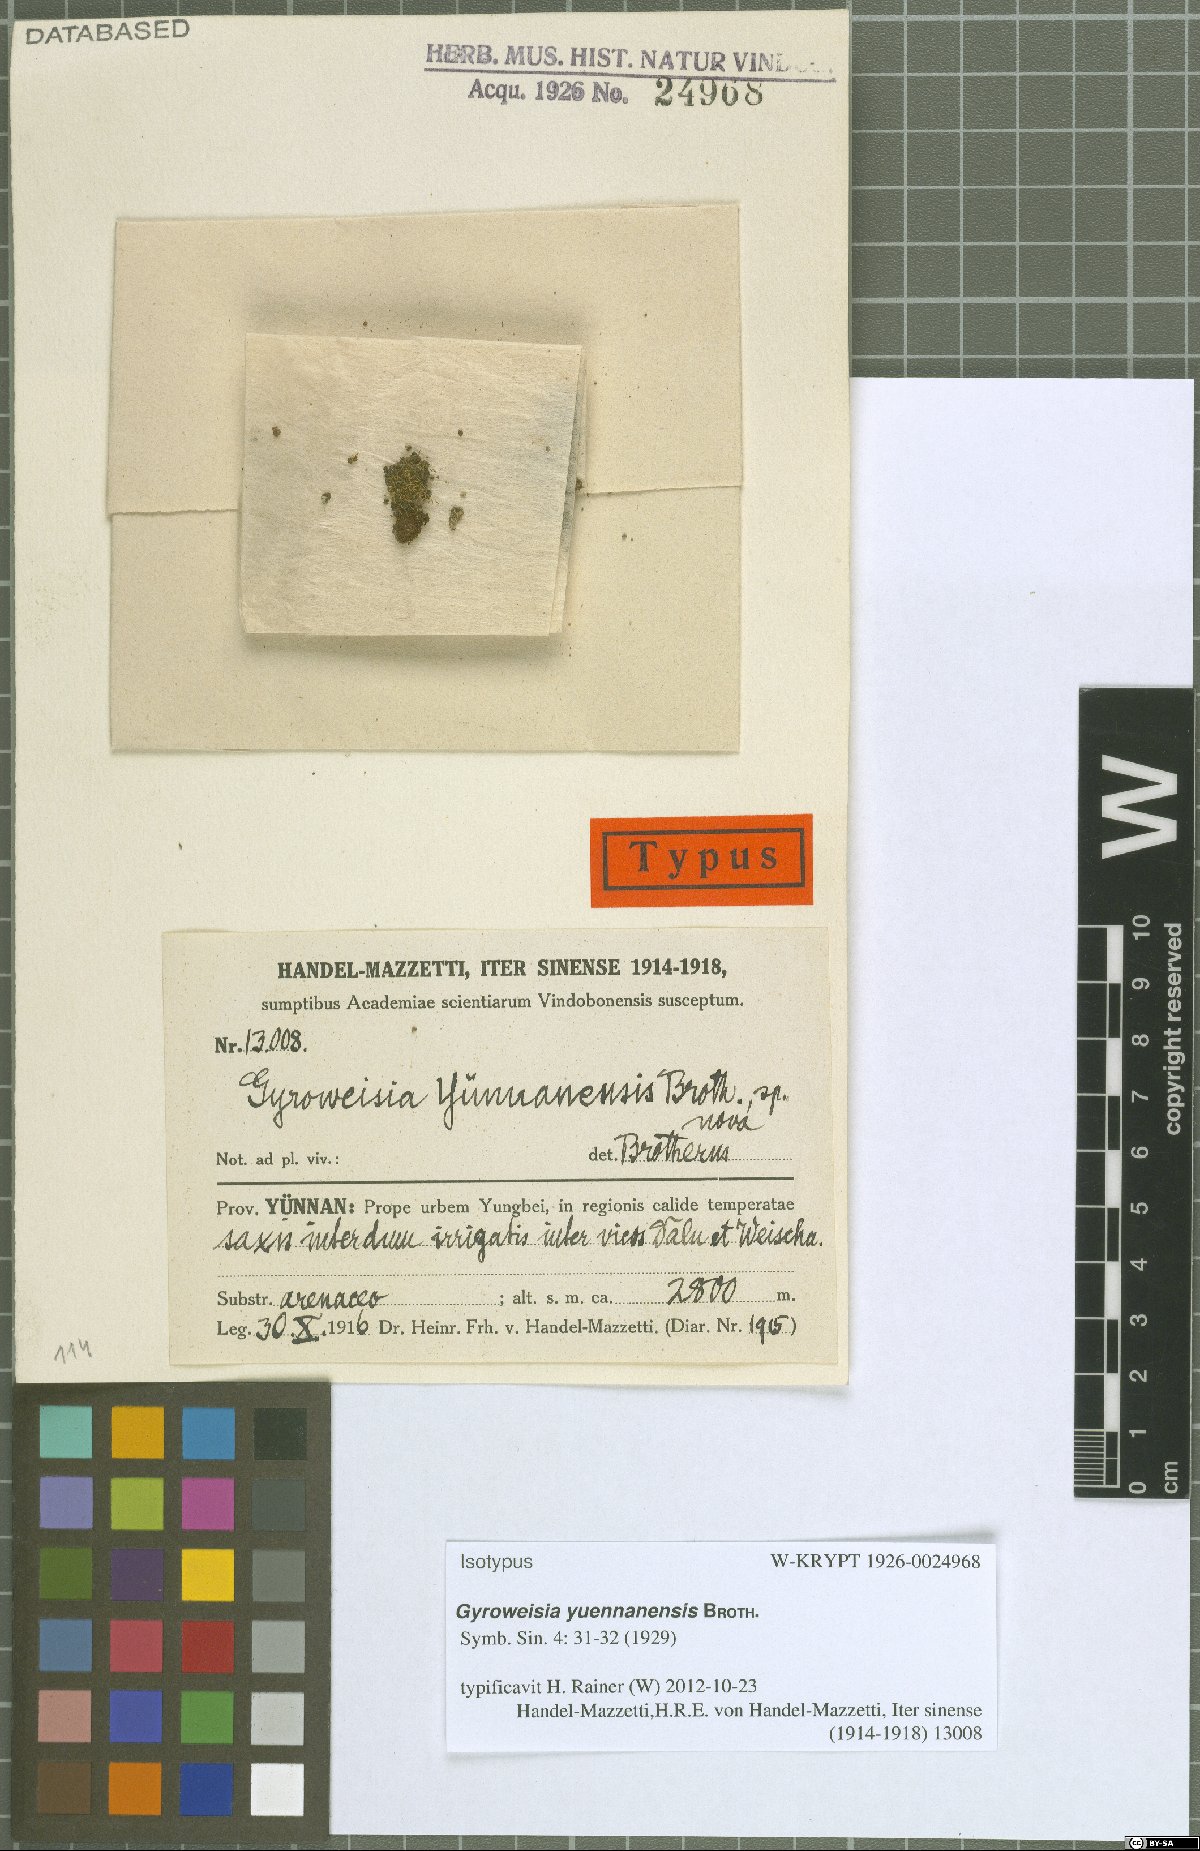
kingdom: Plantae
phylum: Bryophyta
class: Bryopsida
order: Pottiales
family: Pottiaceae
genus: Gyroweisia
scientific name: Gyroweisia yuennanensis
